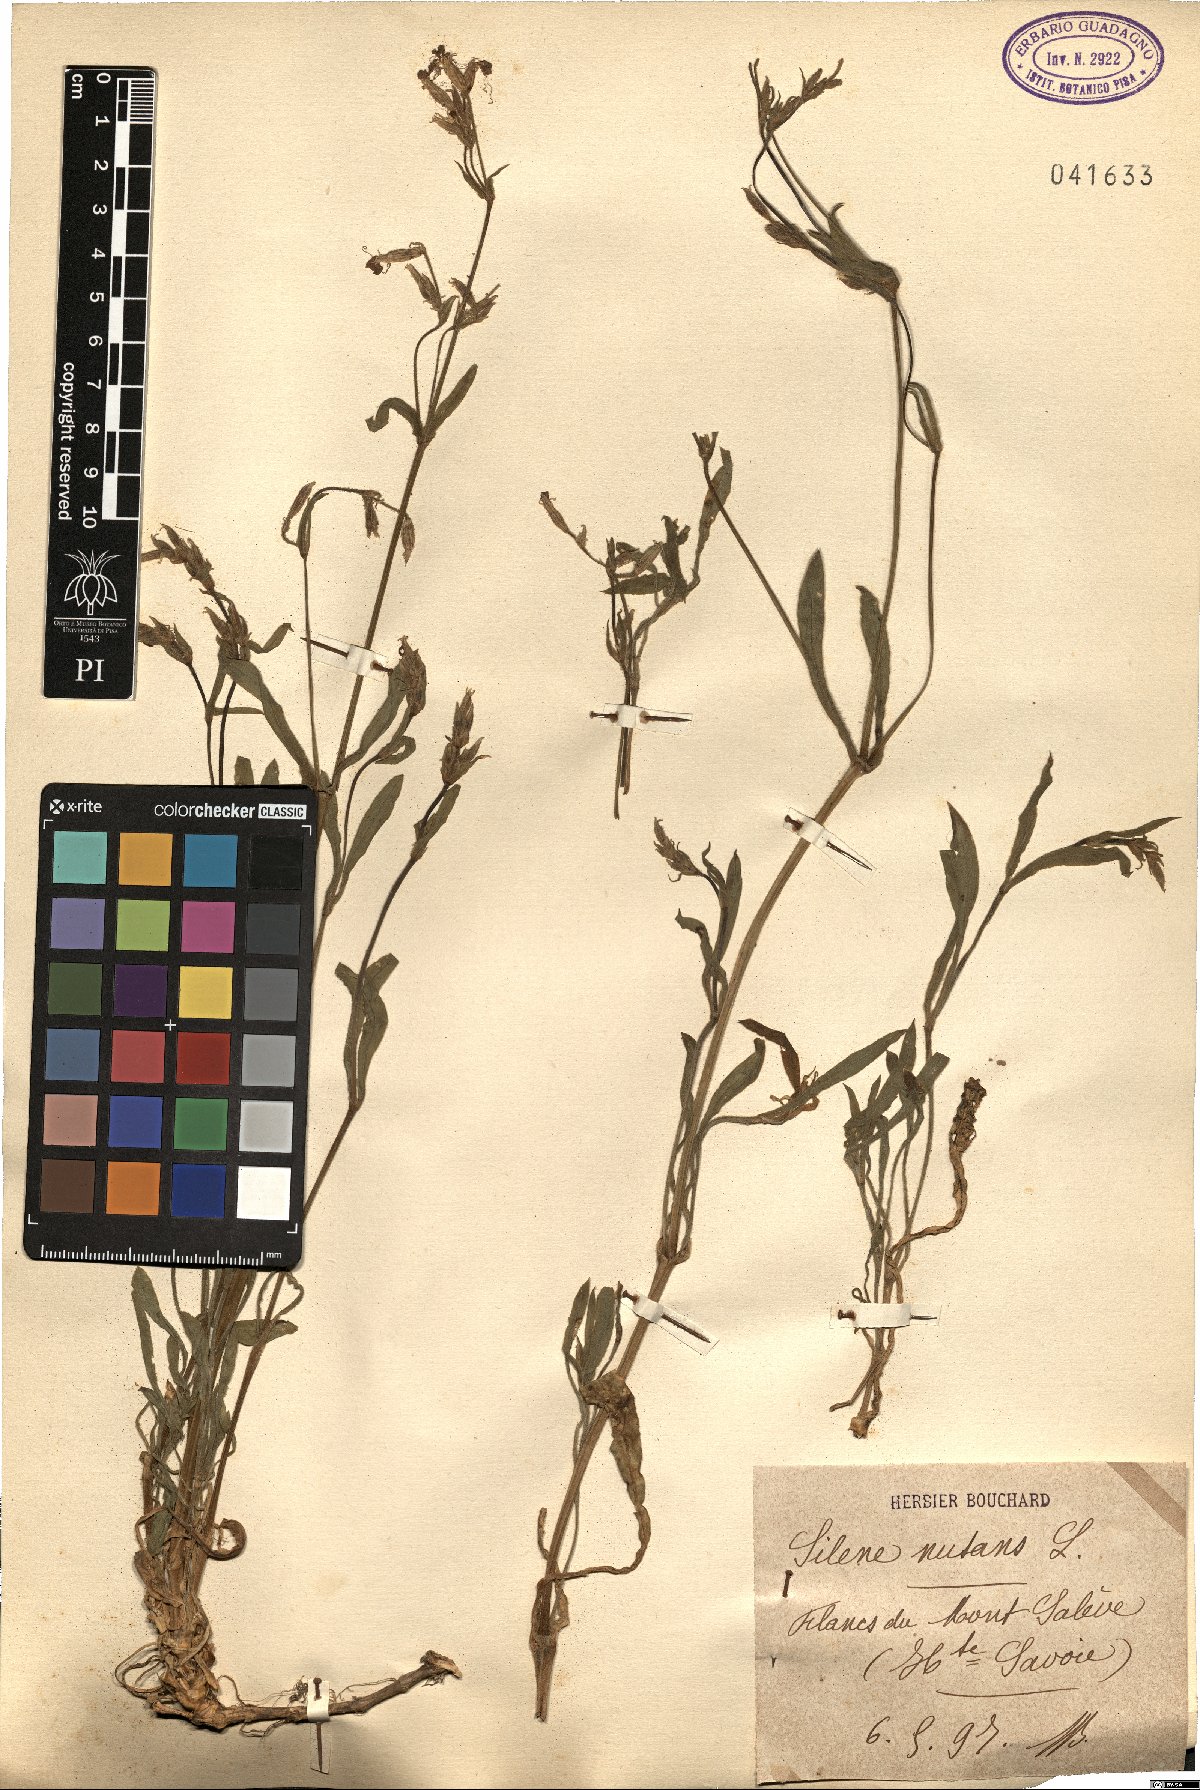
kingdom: Plantae
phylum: Tracheophyta
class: Magnoliopsida
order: Caryophyllales
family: Caryophyllaceae
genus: Silene
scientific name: Silene nutans
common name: Nottingham catchfly
